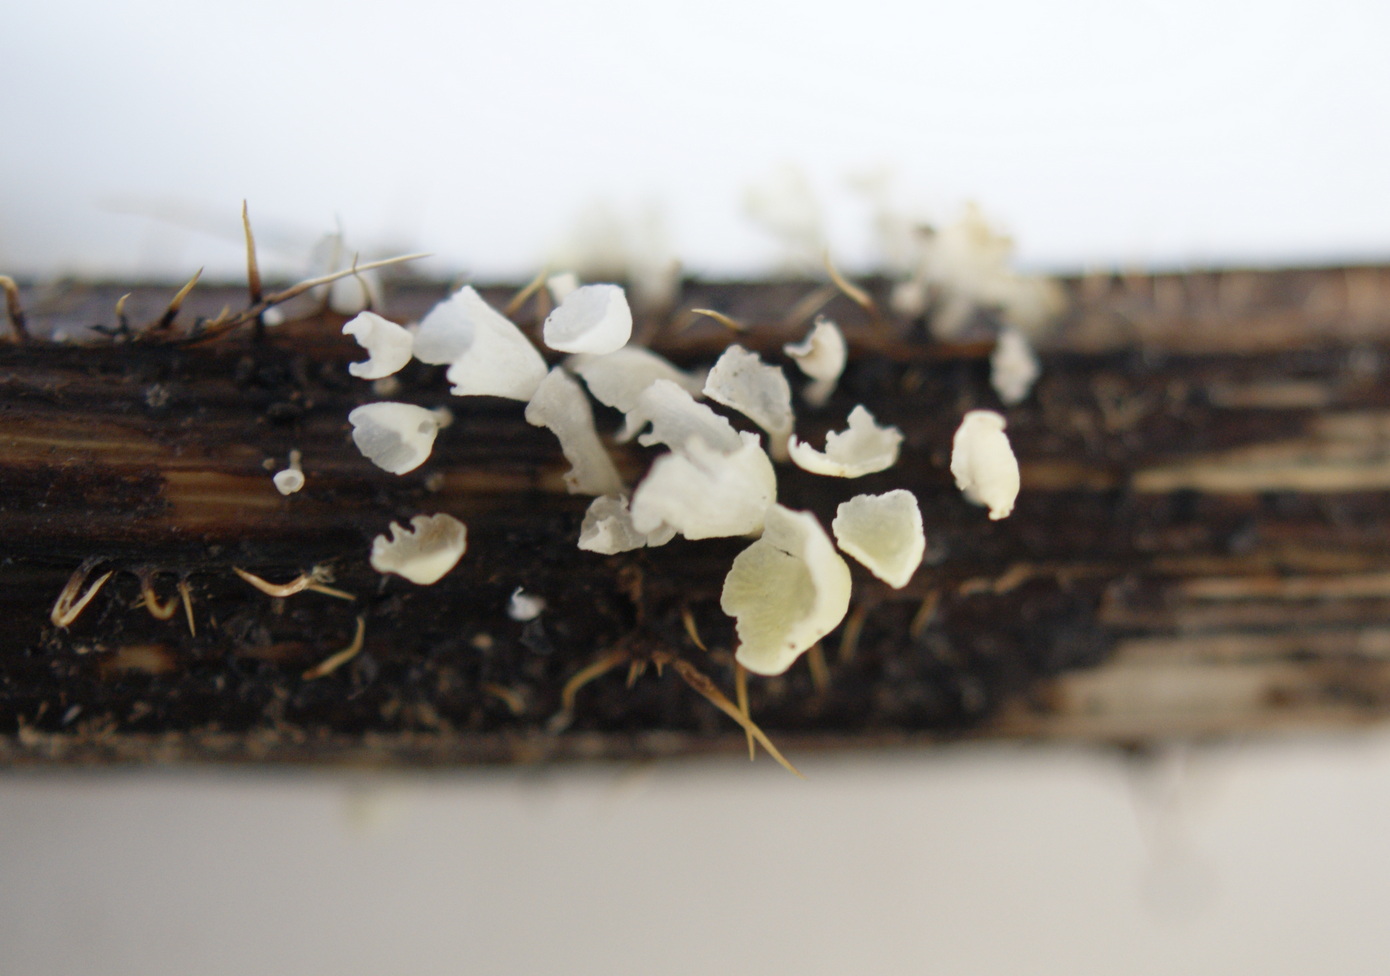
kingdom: Fungi
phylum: Basidiomycota
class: Agaricomycetes
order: Agaricales
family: Marasmiaceae
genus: Calyptella
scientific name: Calyptella capula
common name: hvidlig nældehue
